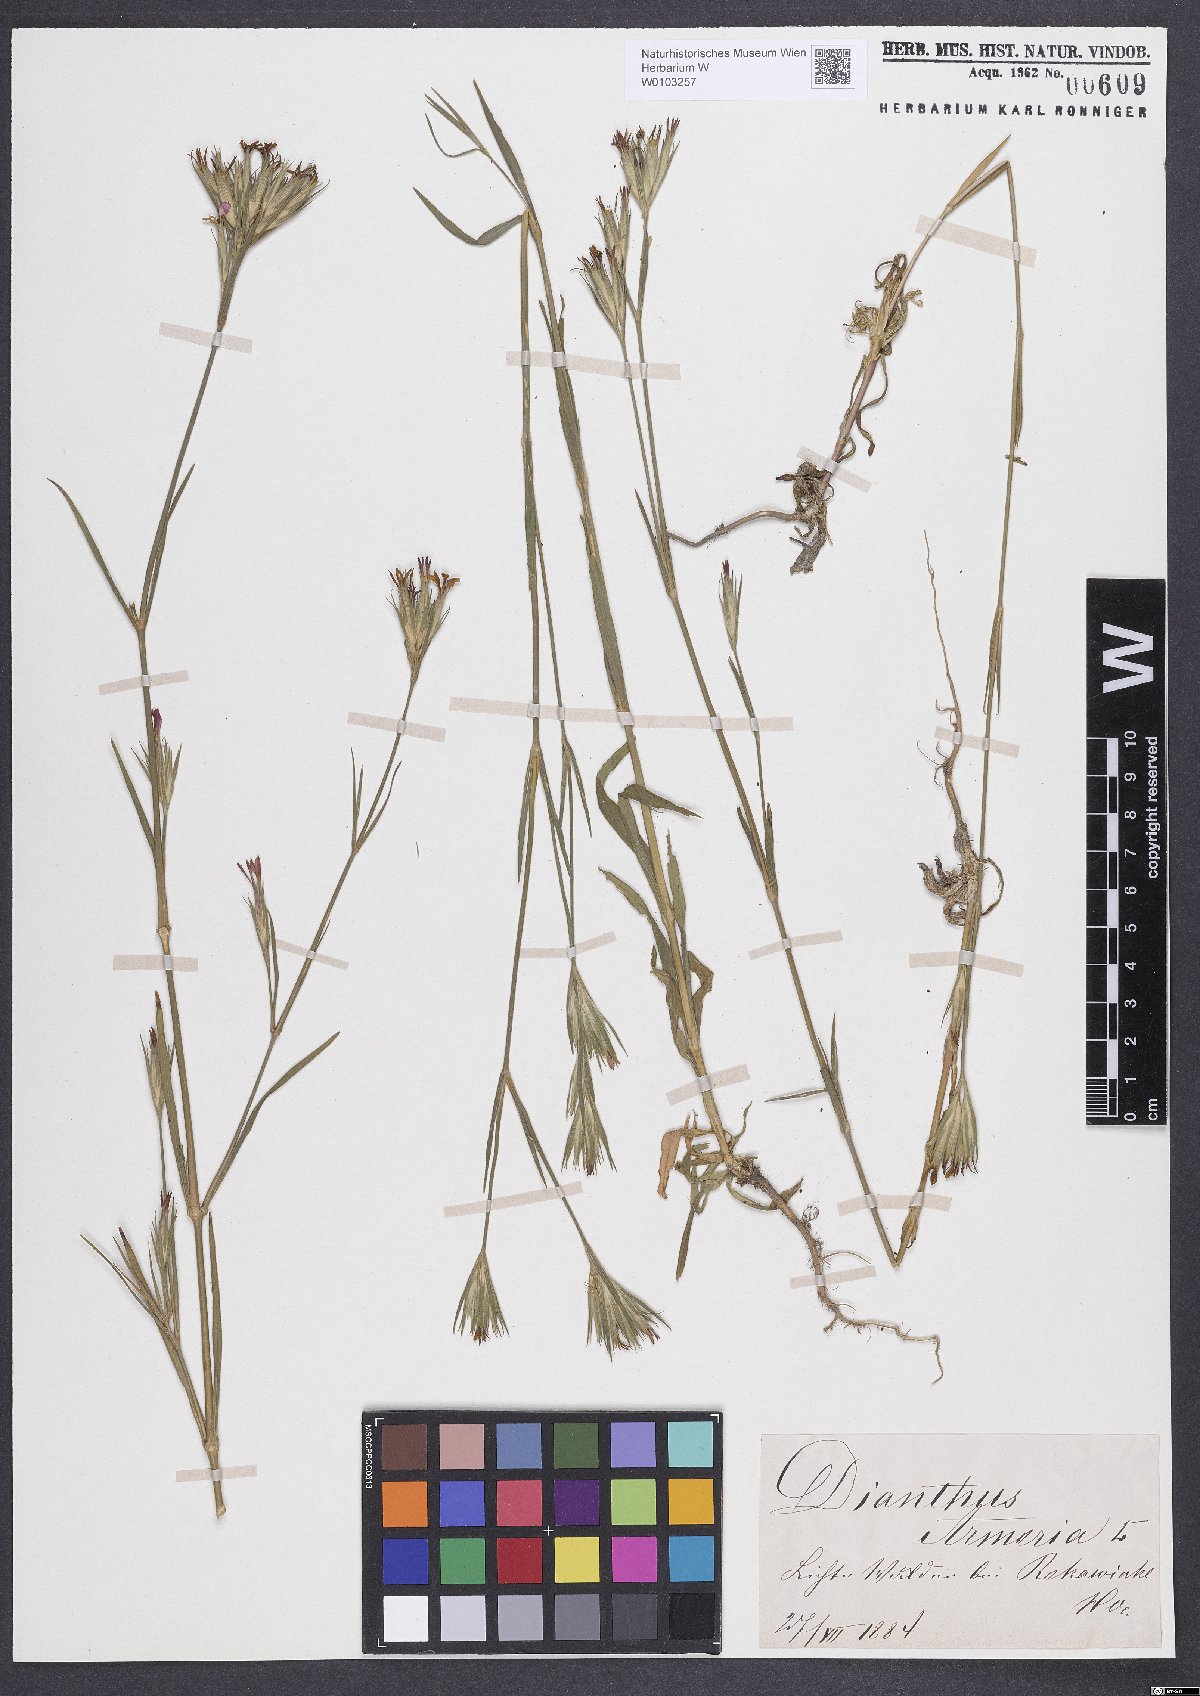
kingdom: Plantae
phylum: Tracheophyta
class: Magnoliopsida
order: Caryophyllales
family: Caryophyllaceae
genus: Dianthus
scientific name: Dianthus armeria
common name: Deptford pink
